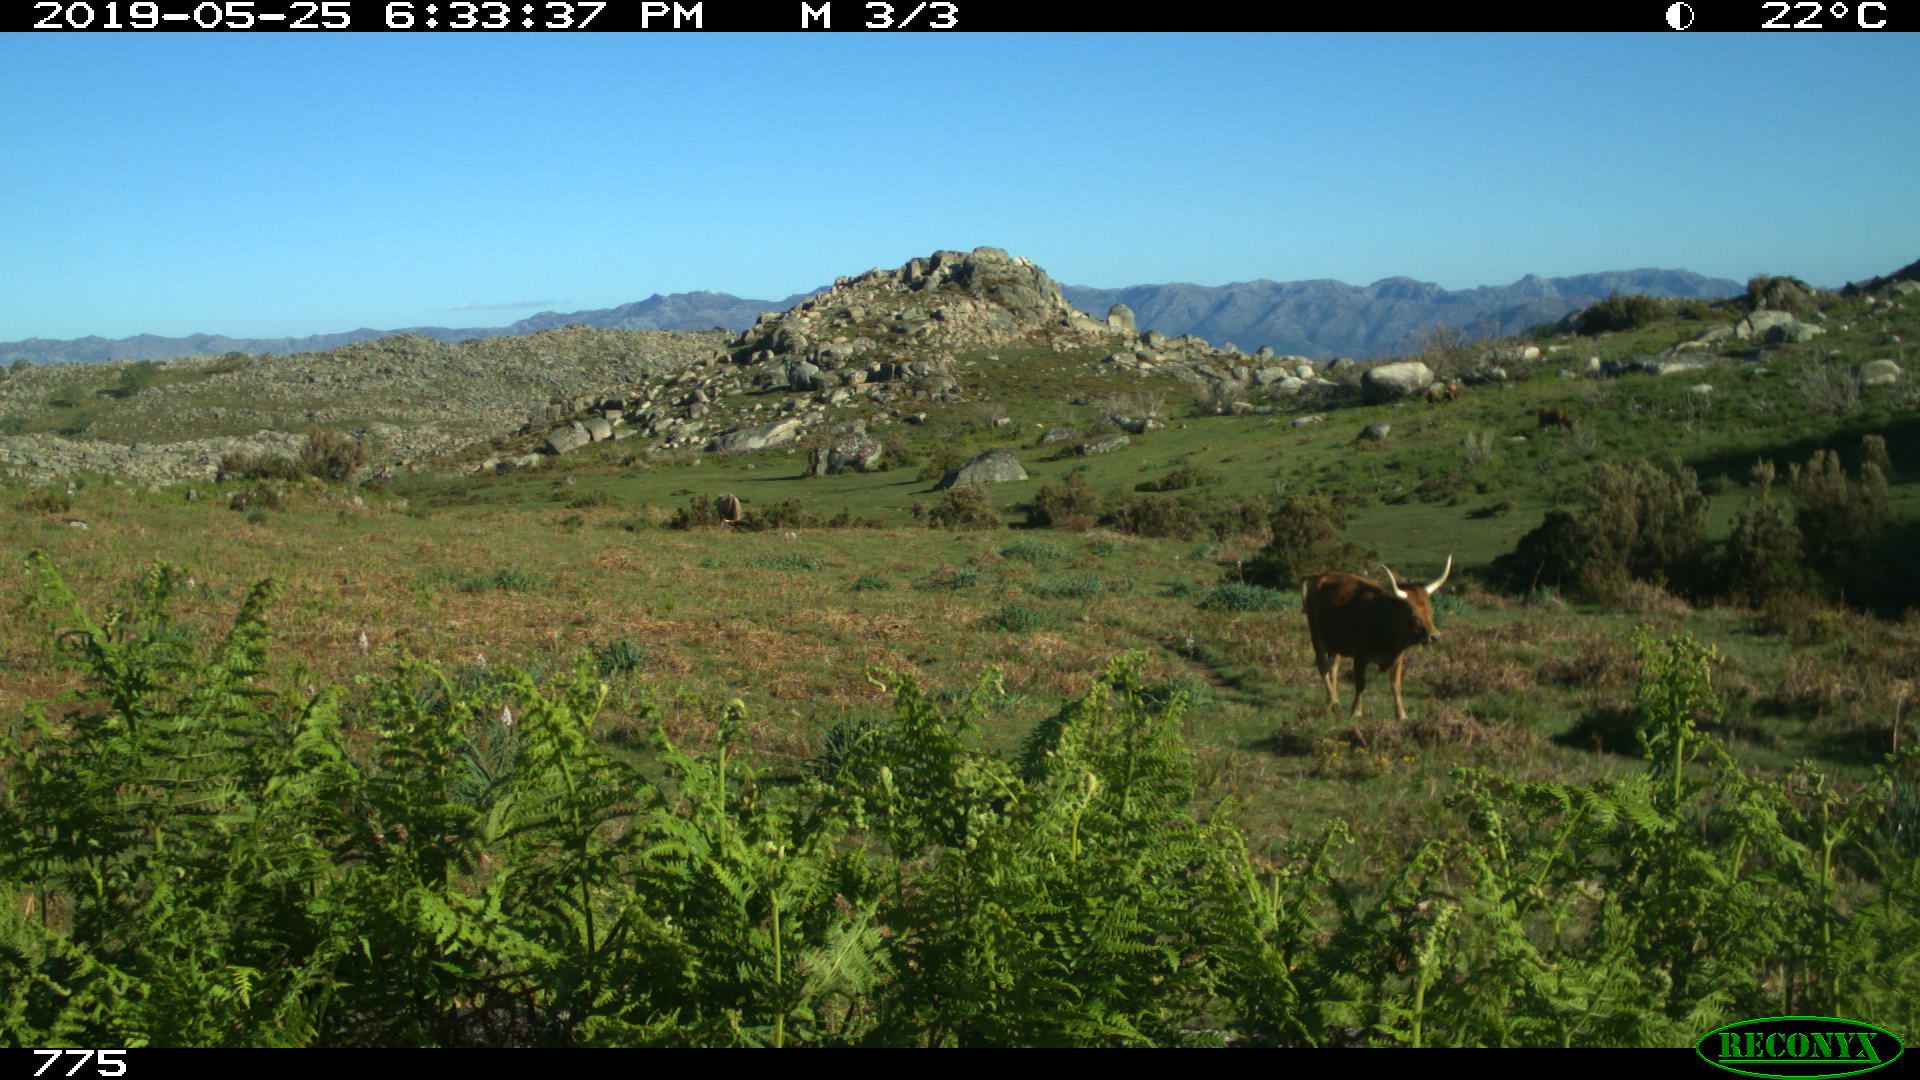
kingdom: Animalia
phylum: Chordata
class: Mammalia
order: Artiodactyla
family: Bovidae
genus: Bos
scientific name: Bos taurus
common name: Domesticated cattle
